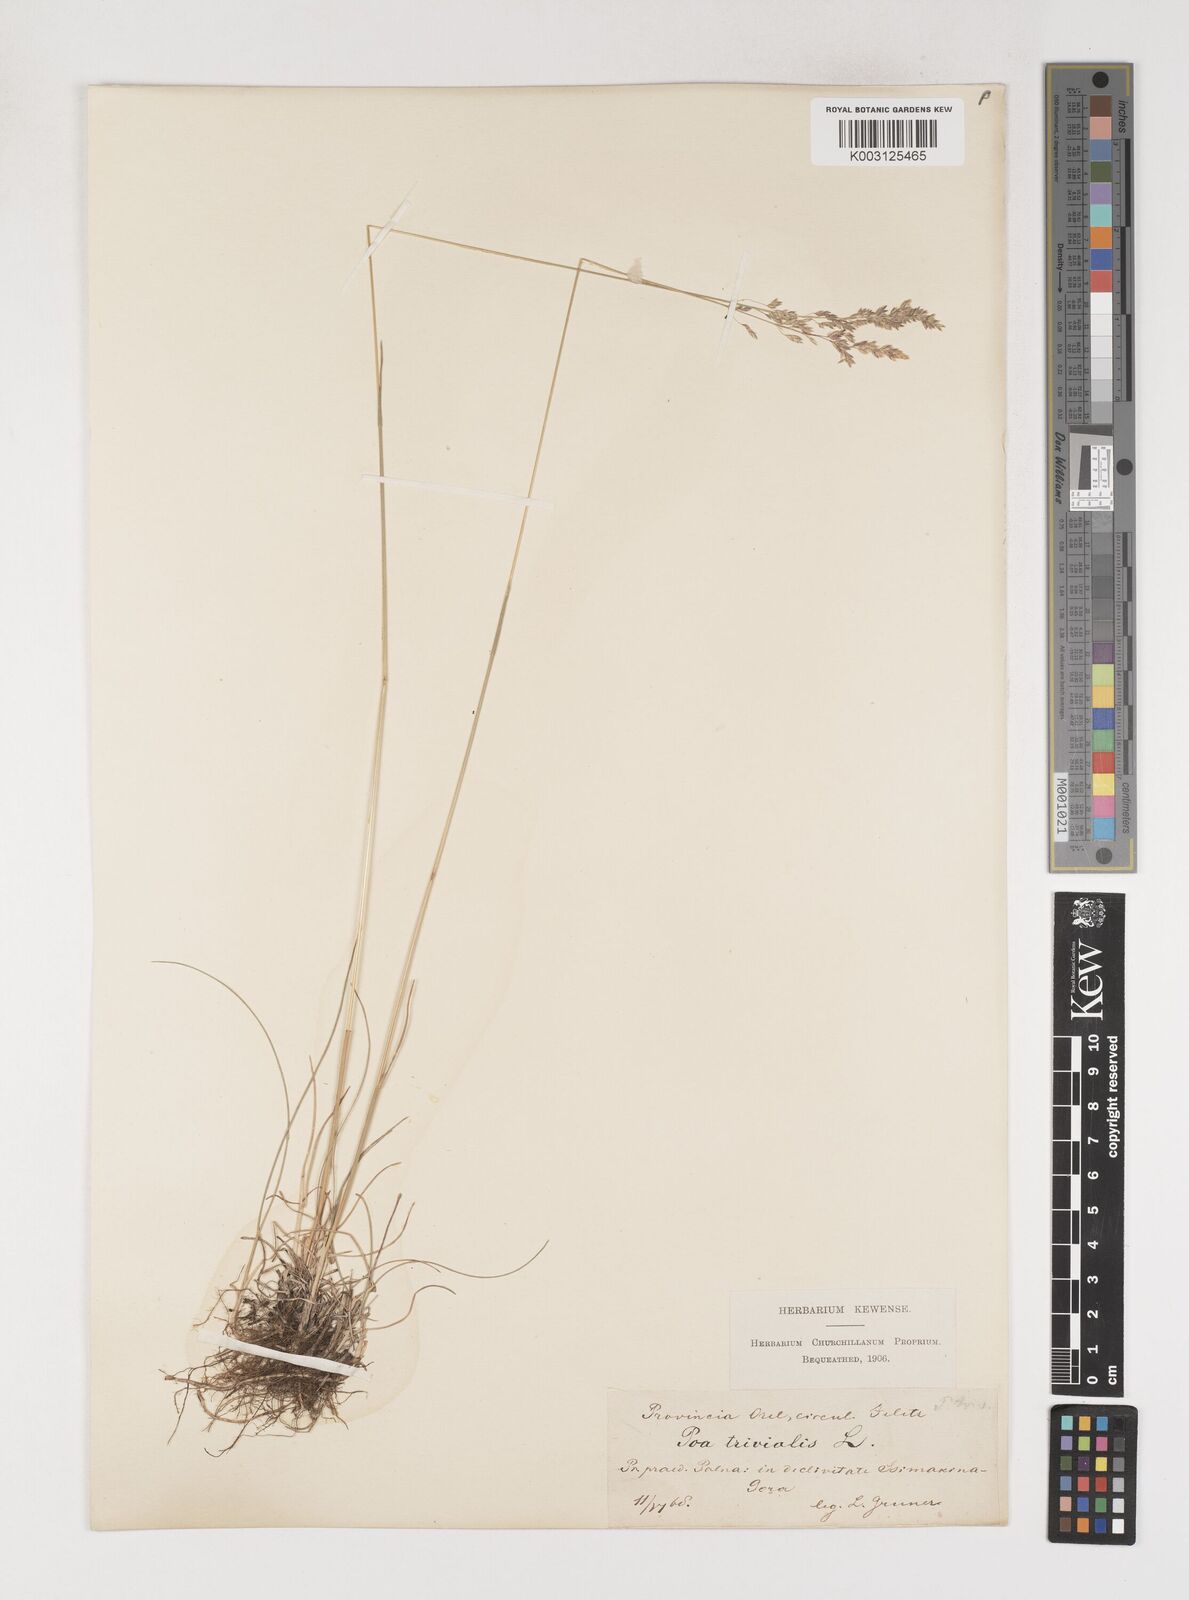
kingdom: Plantae
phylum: Tracheophyta
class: Liliopsida
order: Poales
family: Poaceae
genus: Poa
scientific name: Poa angustifolia
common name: Narrow-leaved meadow-grass
